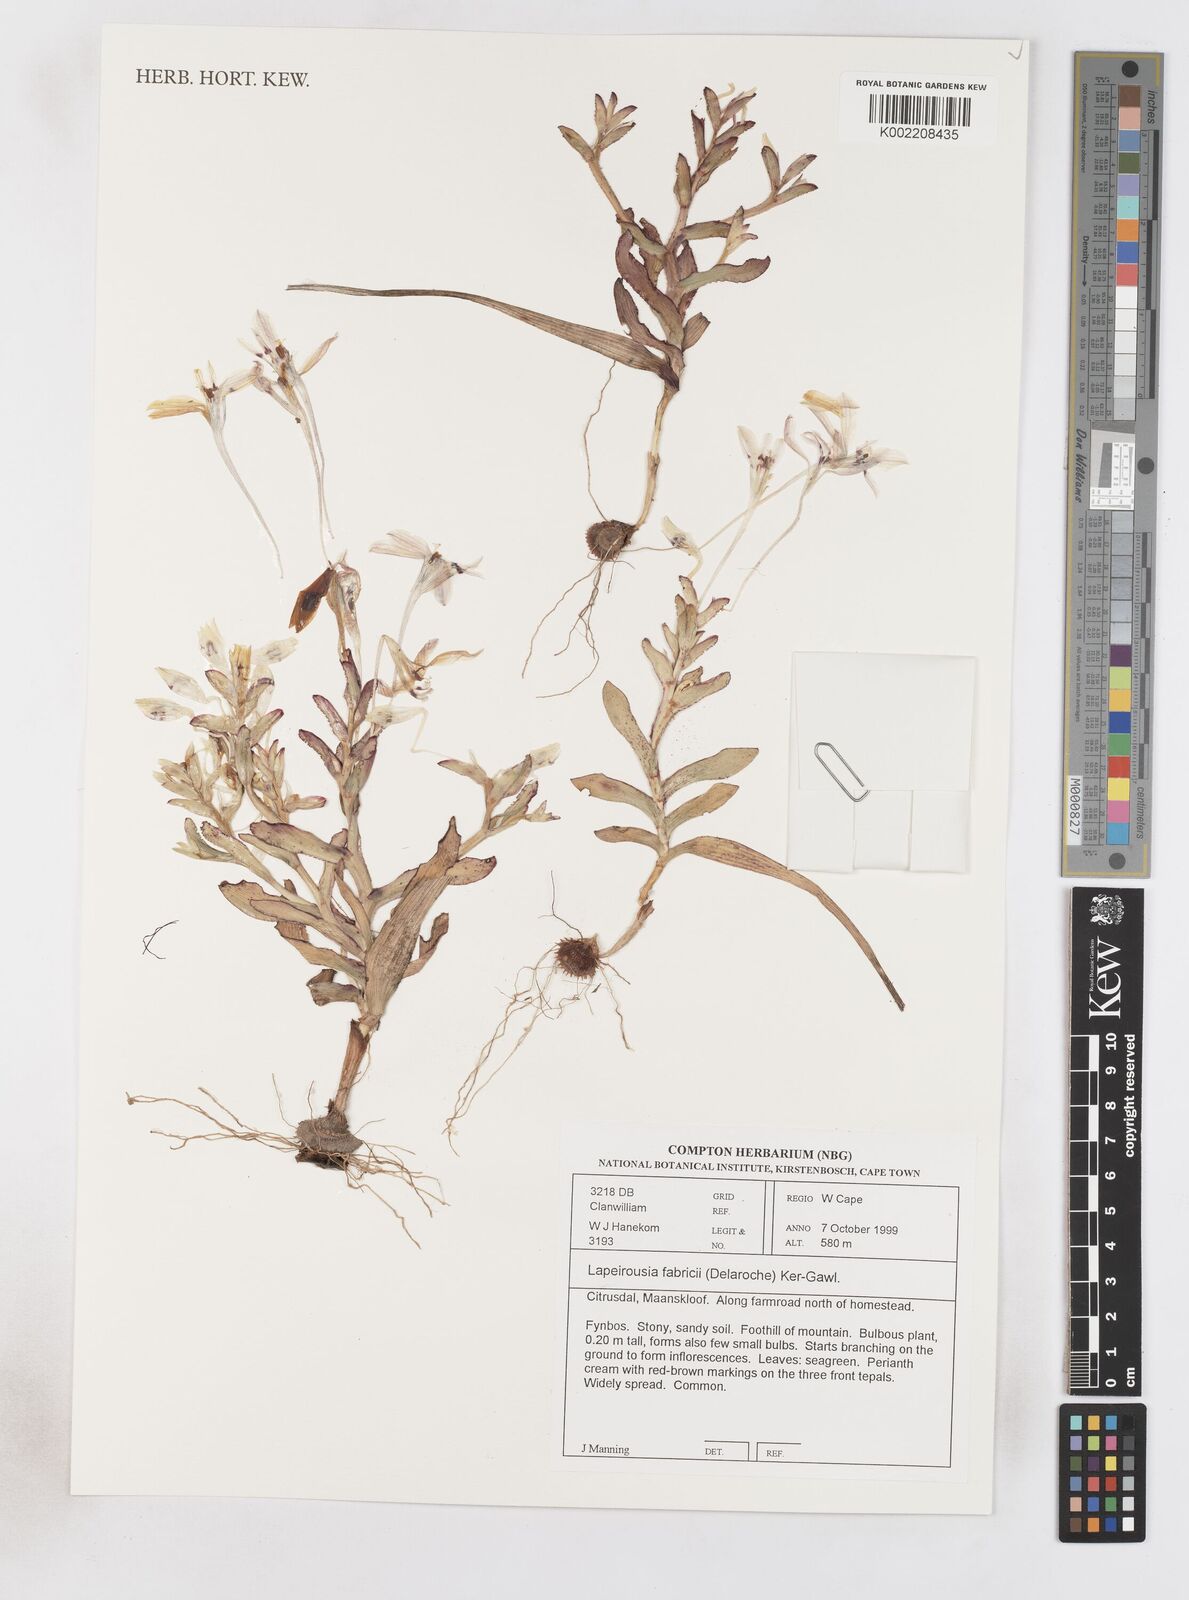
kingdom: Plantae
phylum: Tracheophyta
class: Liliopsida
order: Asparagales
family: Iridaceae
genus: Lapeirousia
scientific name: Lapeirousia fabricii
